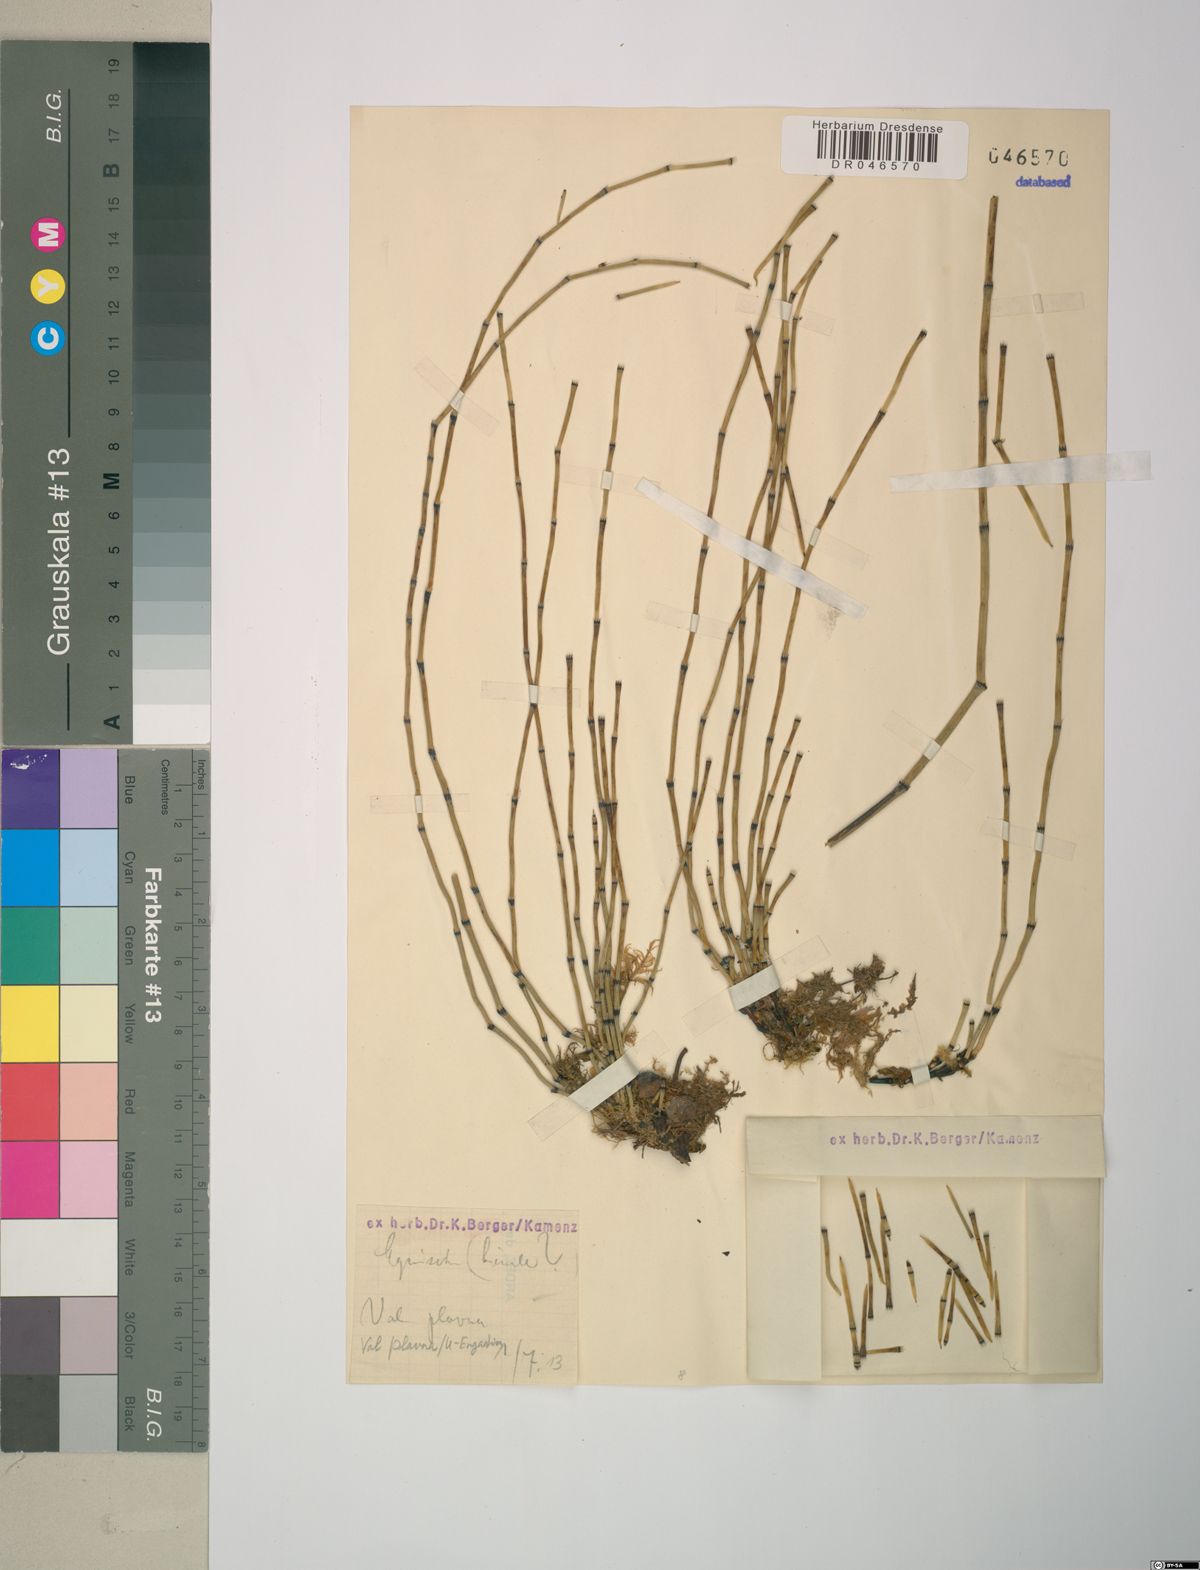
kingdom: Plantae
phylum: Tracheophyta
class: Polypodiopsida
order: Equisetales
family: Equisetaceae
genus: Equisetum
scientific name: Equisetum hyemale
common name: Rough horsetail
